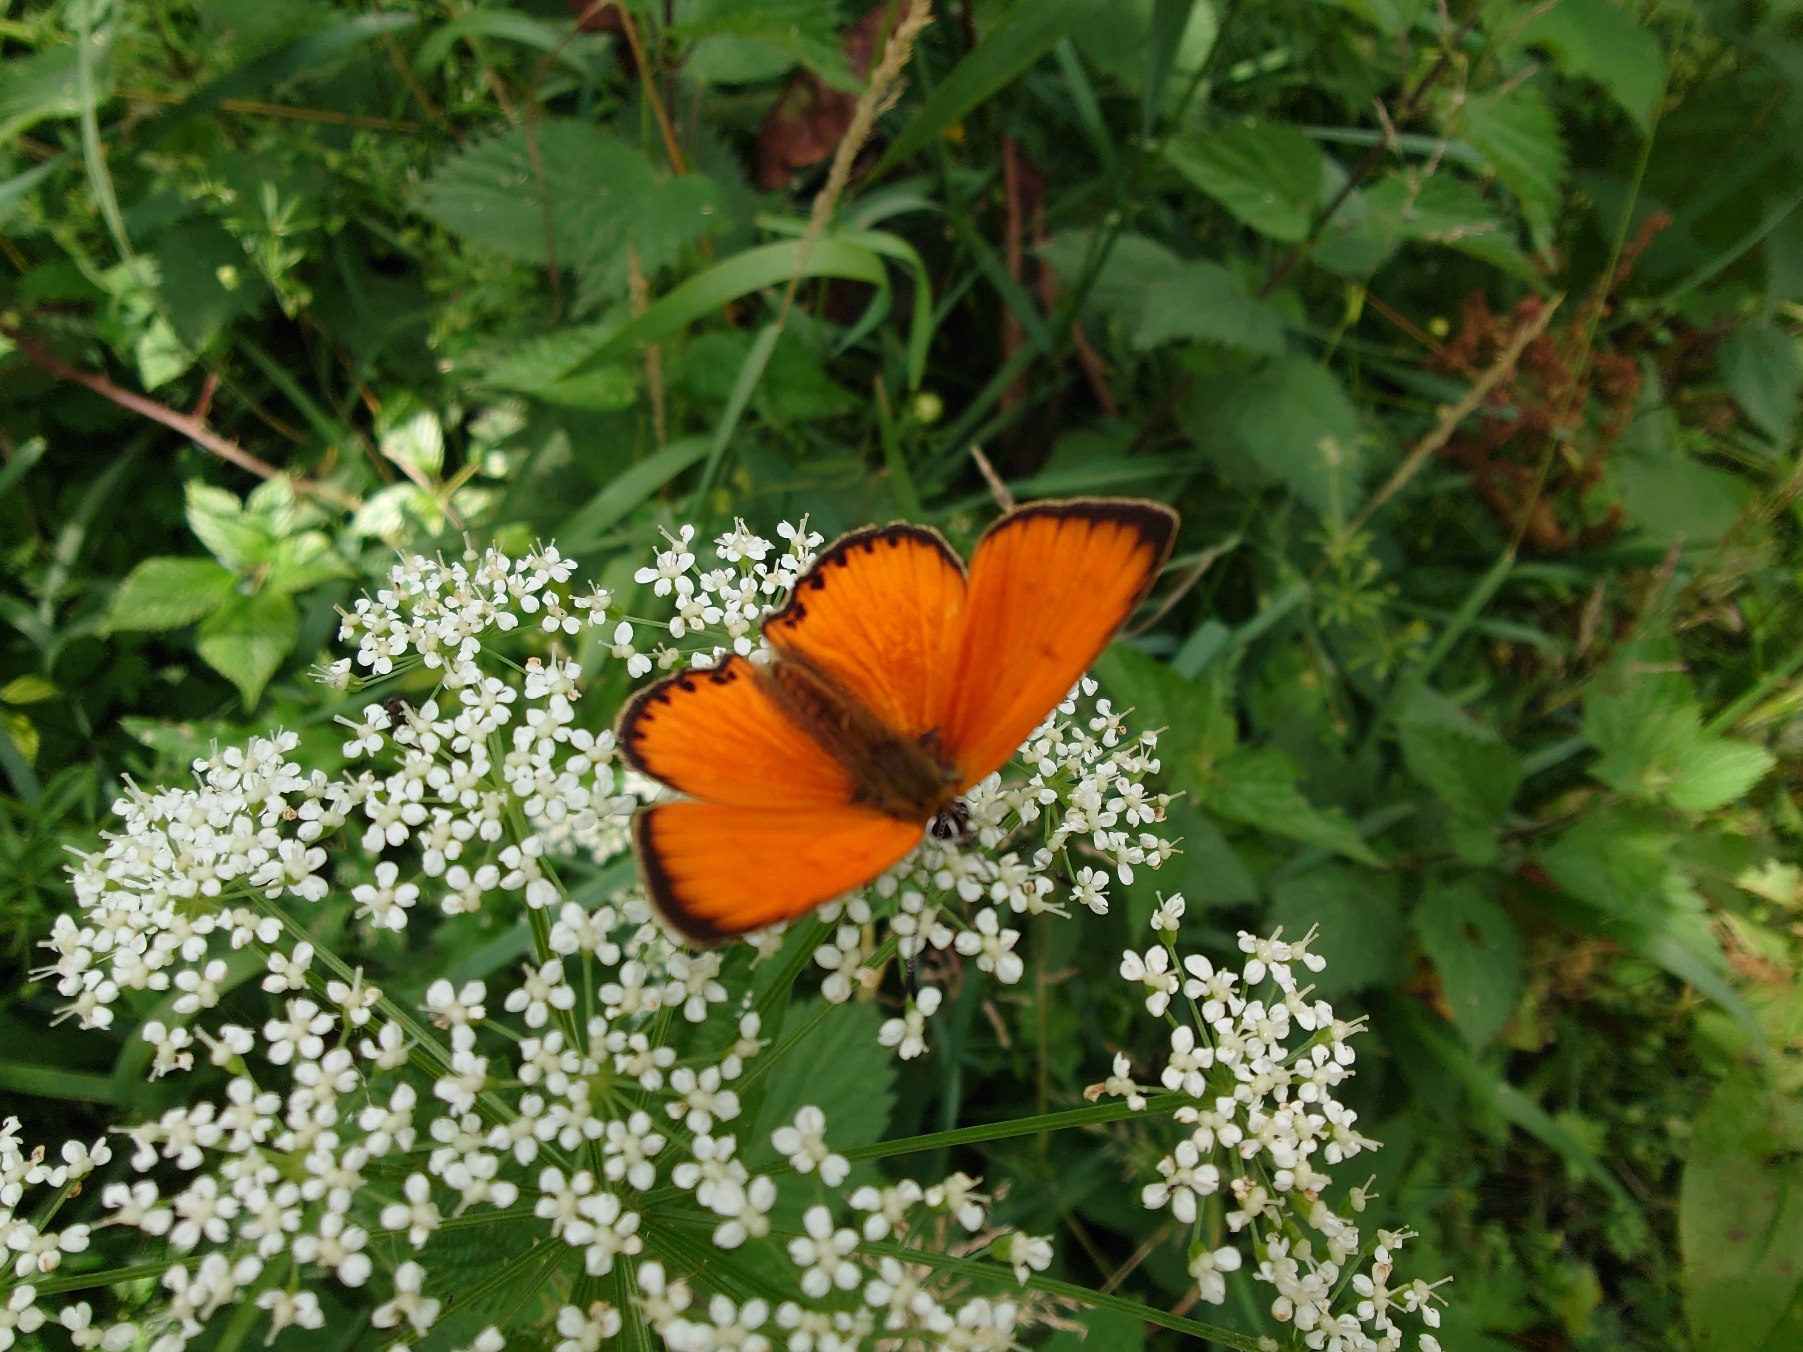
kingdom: Animalia
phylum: Arthropoda
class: Insecta
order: Lepidoptera
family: Lycaenidae
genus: Lycaena
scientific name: Lycaena virgaureae
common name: Dukatsommerfugl
